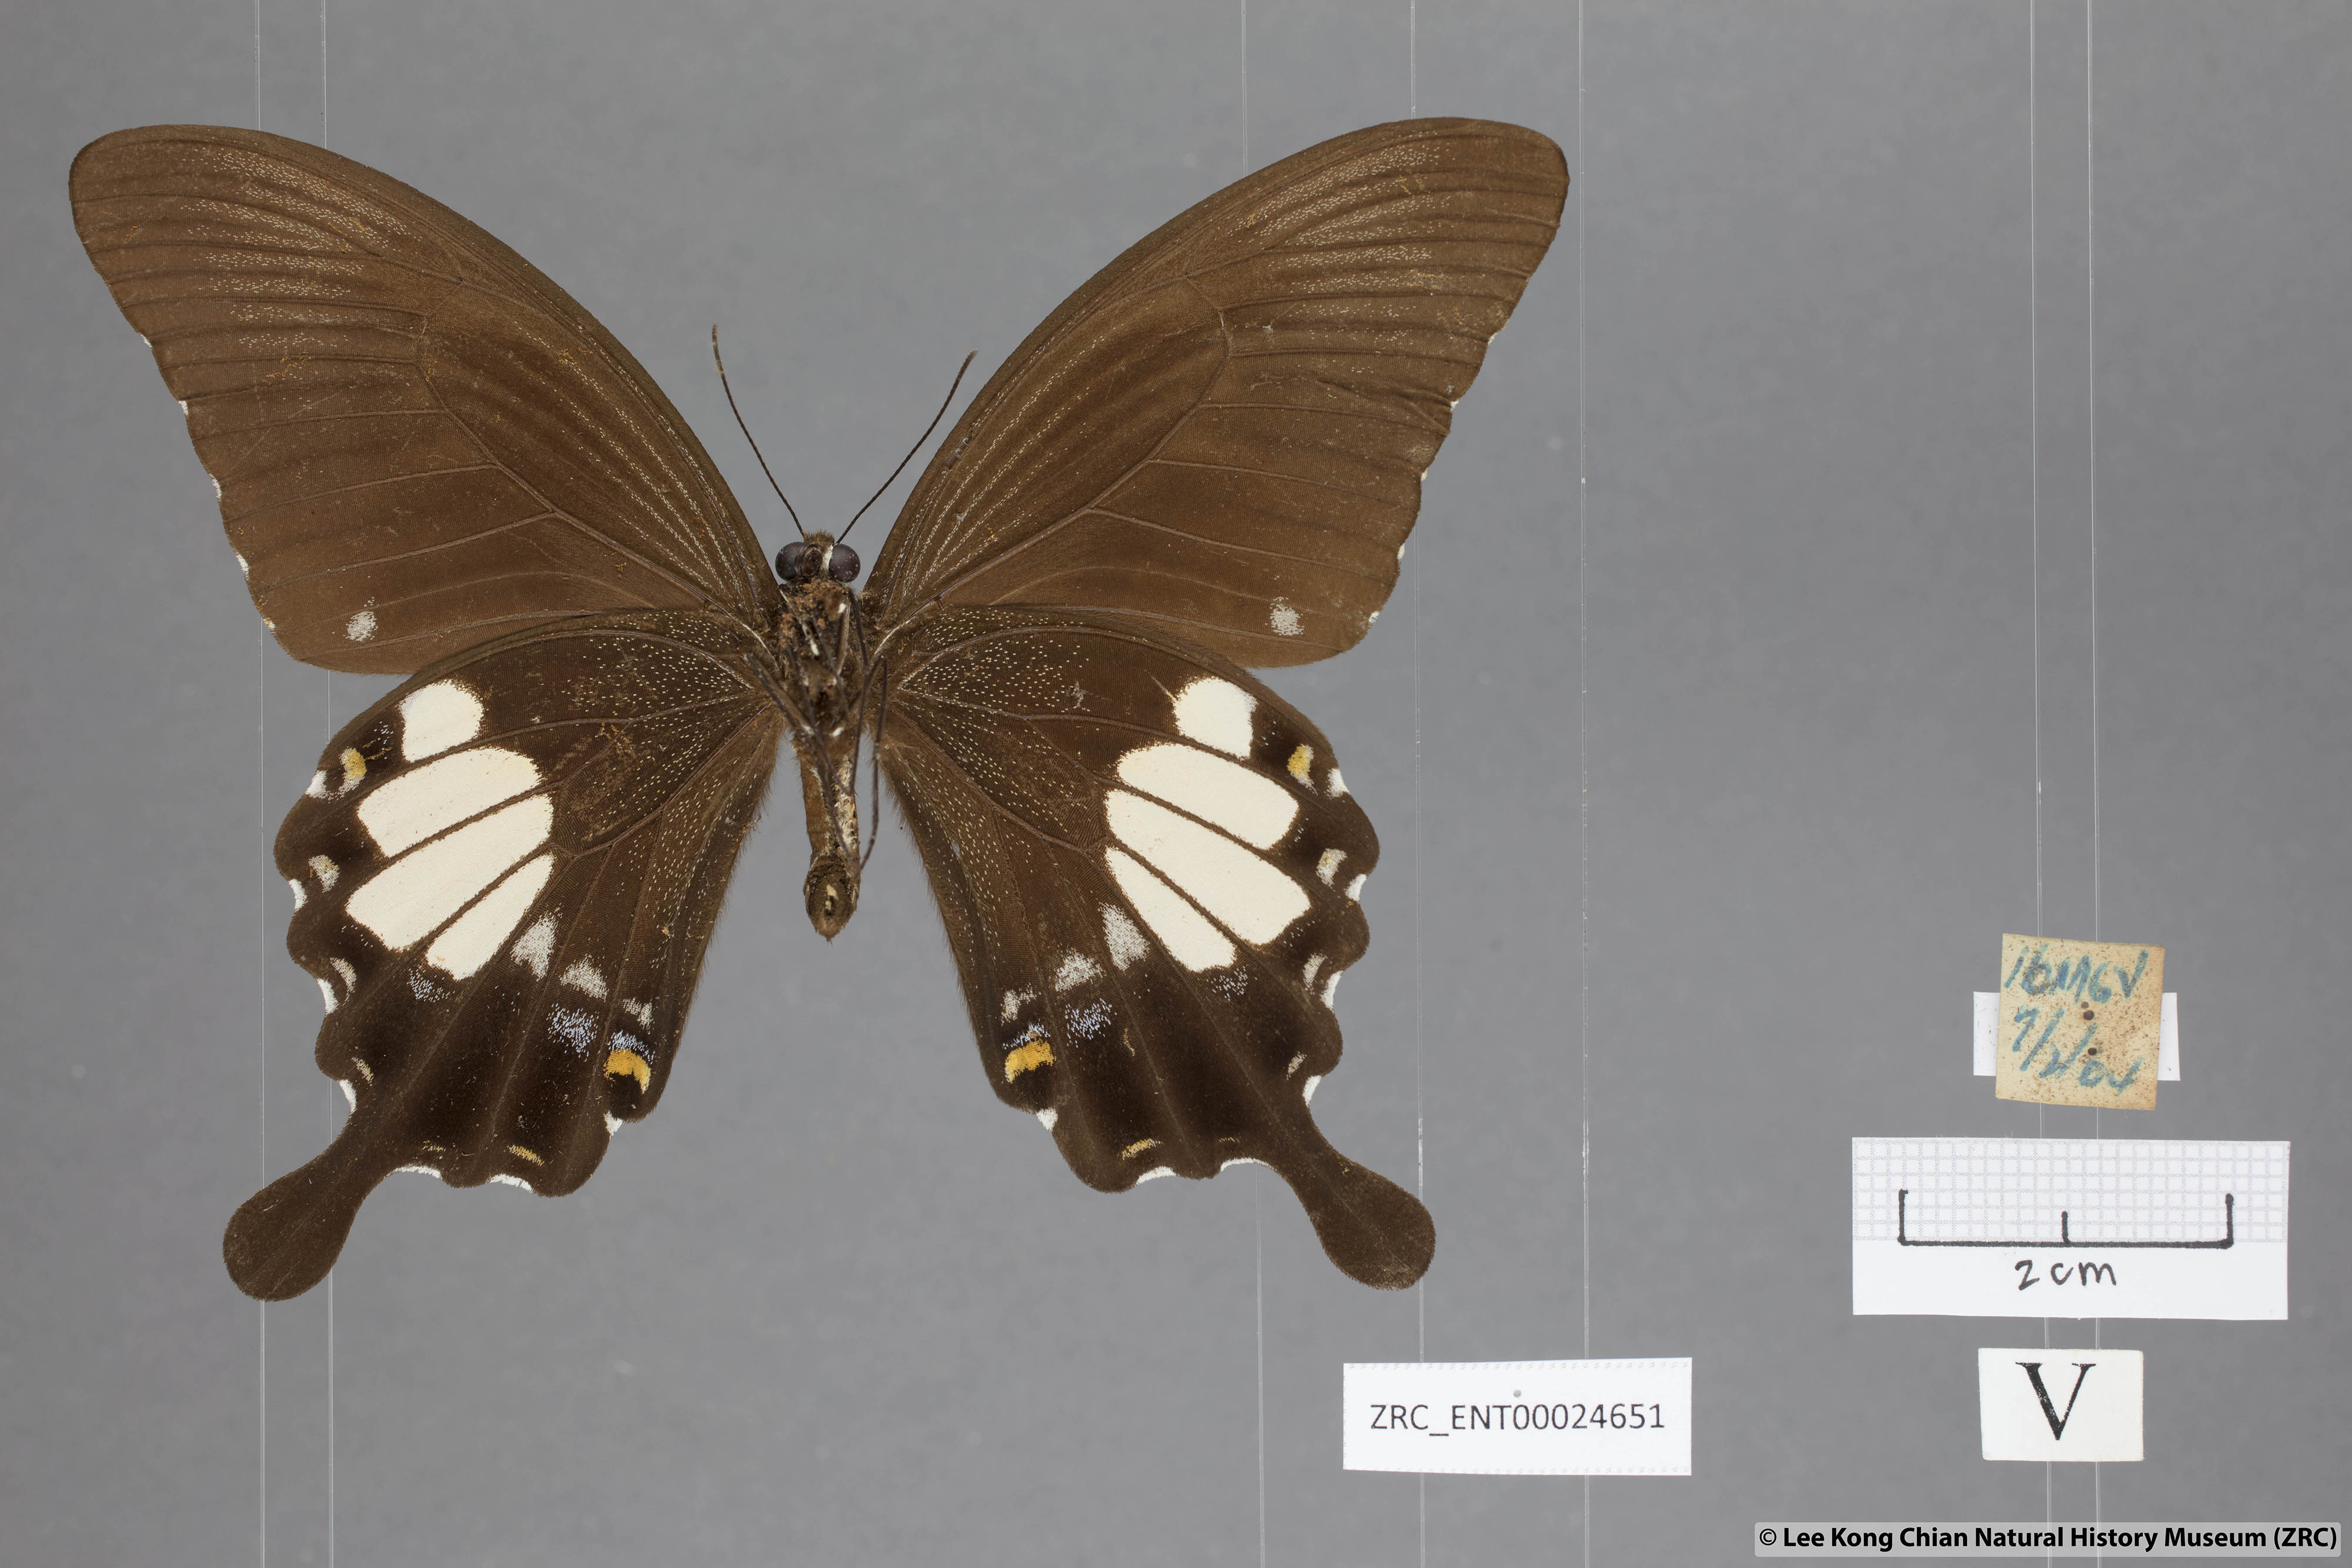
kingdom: Animalia
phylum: Arthropoda
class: Insecta
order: Lepidoptera
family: Papilionidae
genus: Papilio
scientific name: Papilio prexaspes
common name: Blue helen swallowtail
